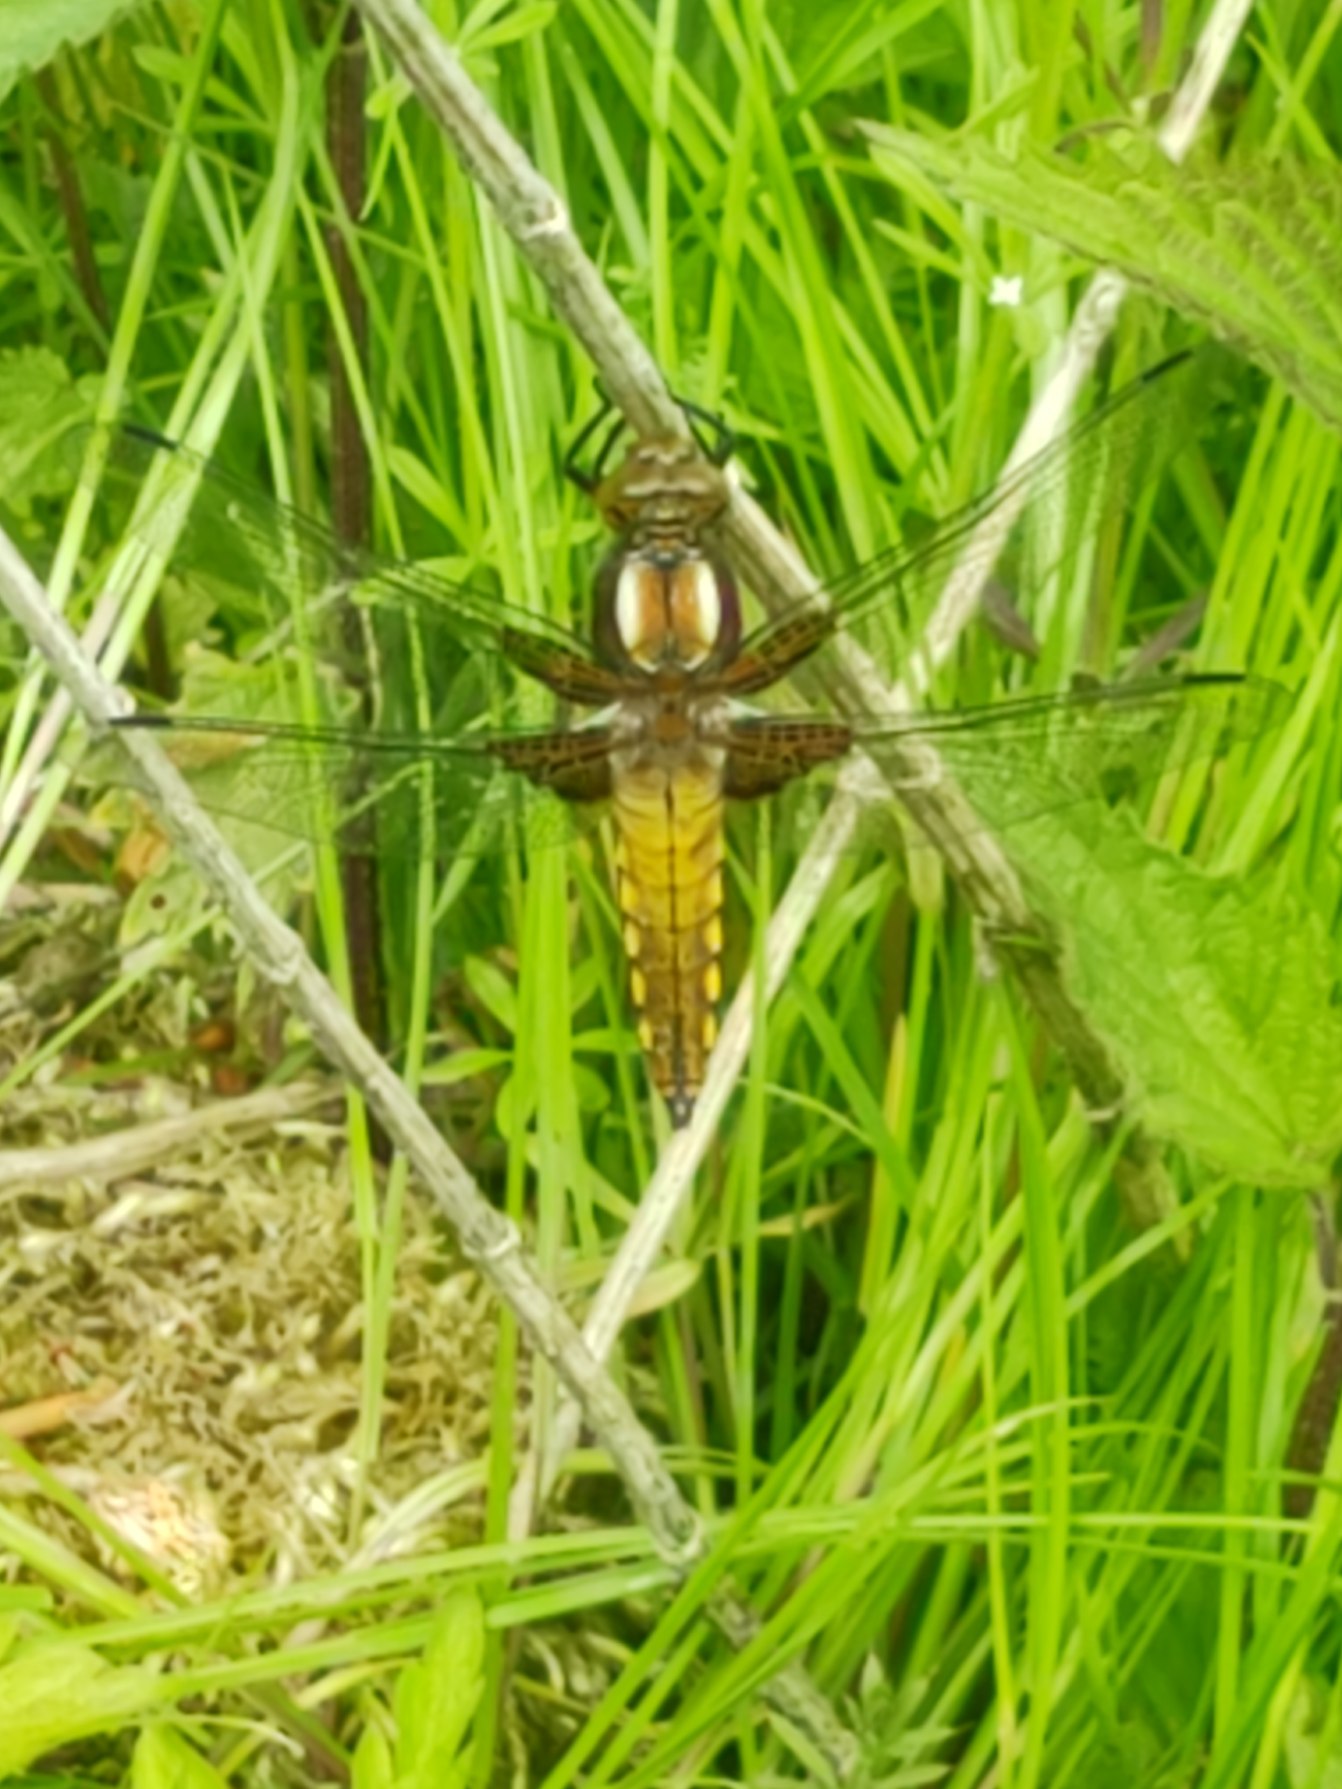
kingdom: Animalia
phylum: Arthropoda
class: Insecta
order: Odonata
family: Libellulidae
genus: Libellula
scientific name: Libellula depressa
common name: Blå libel
